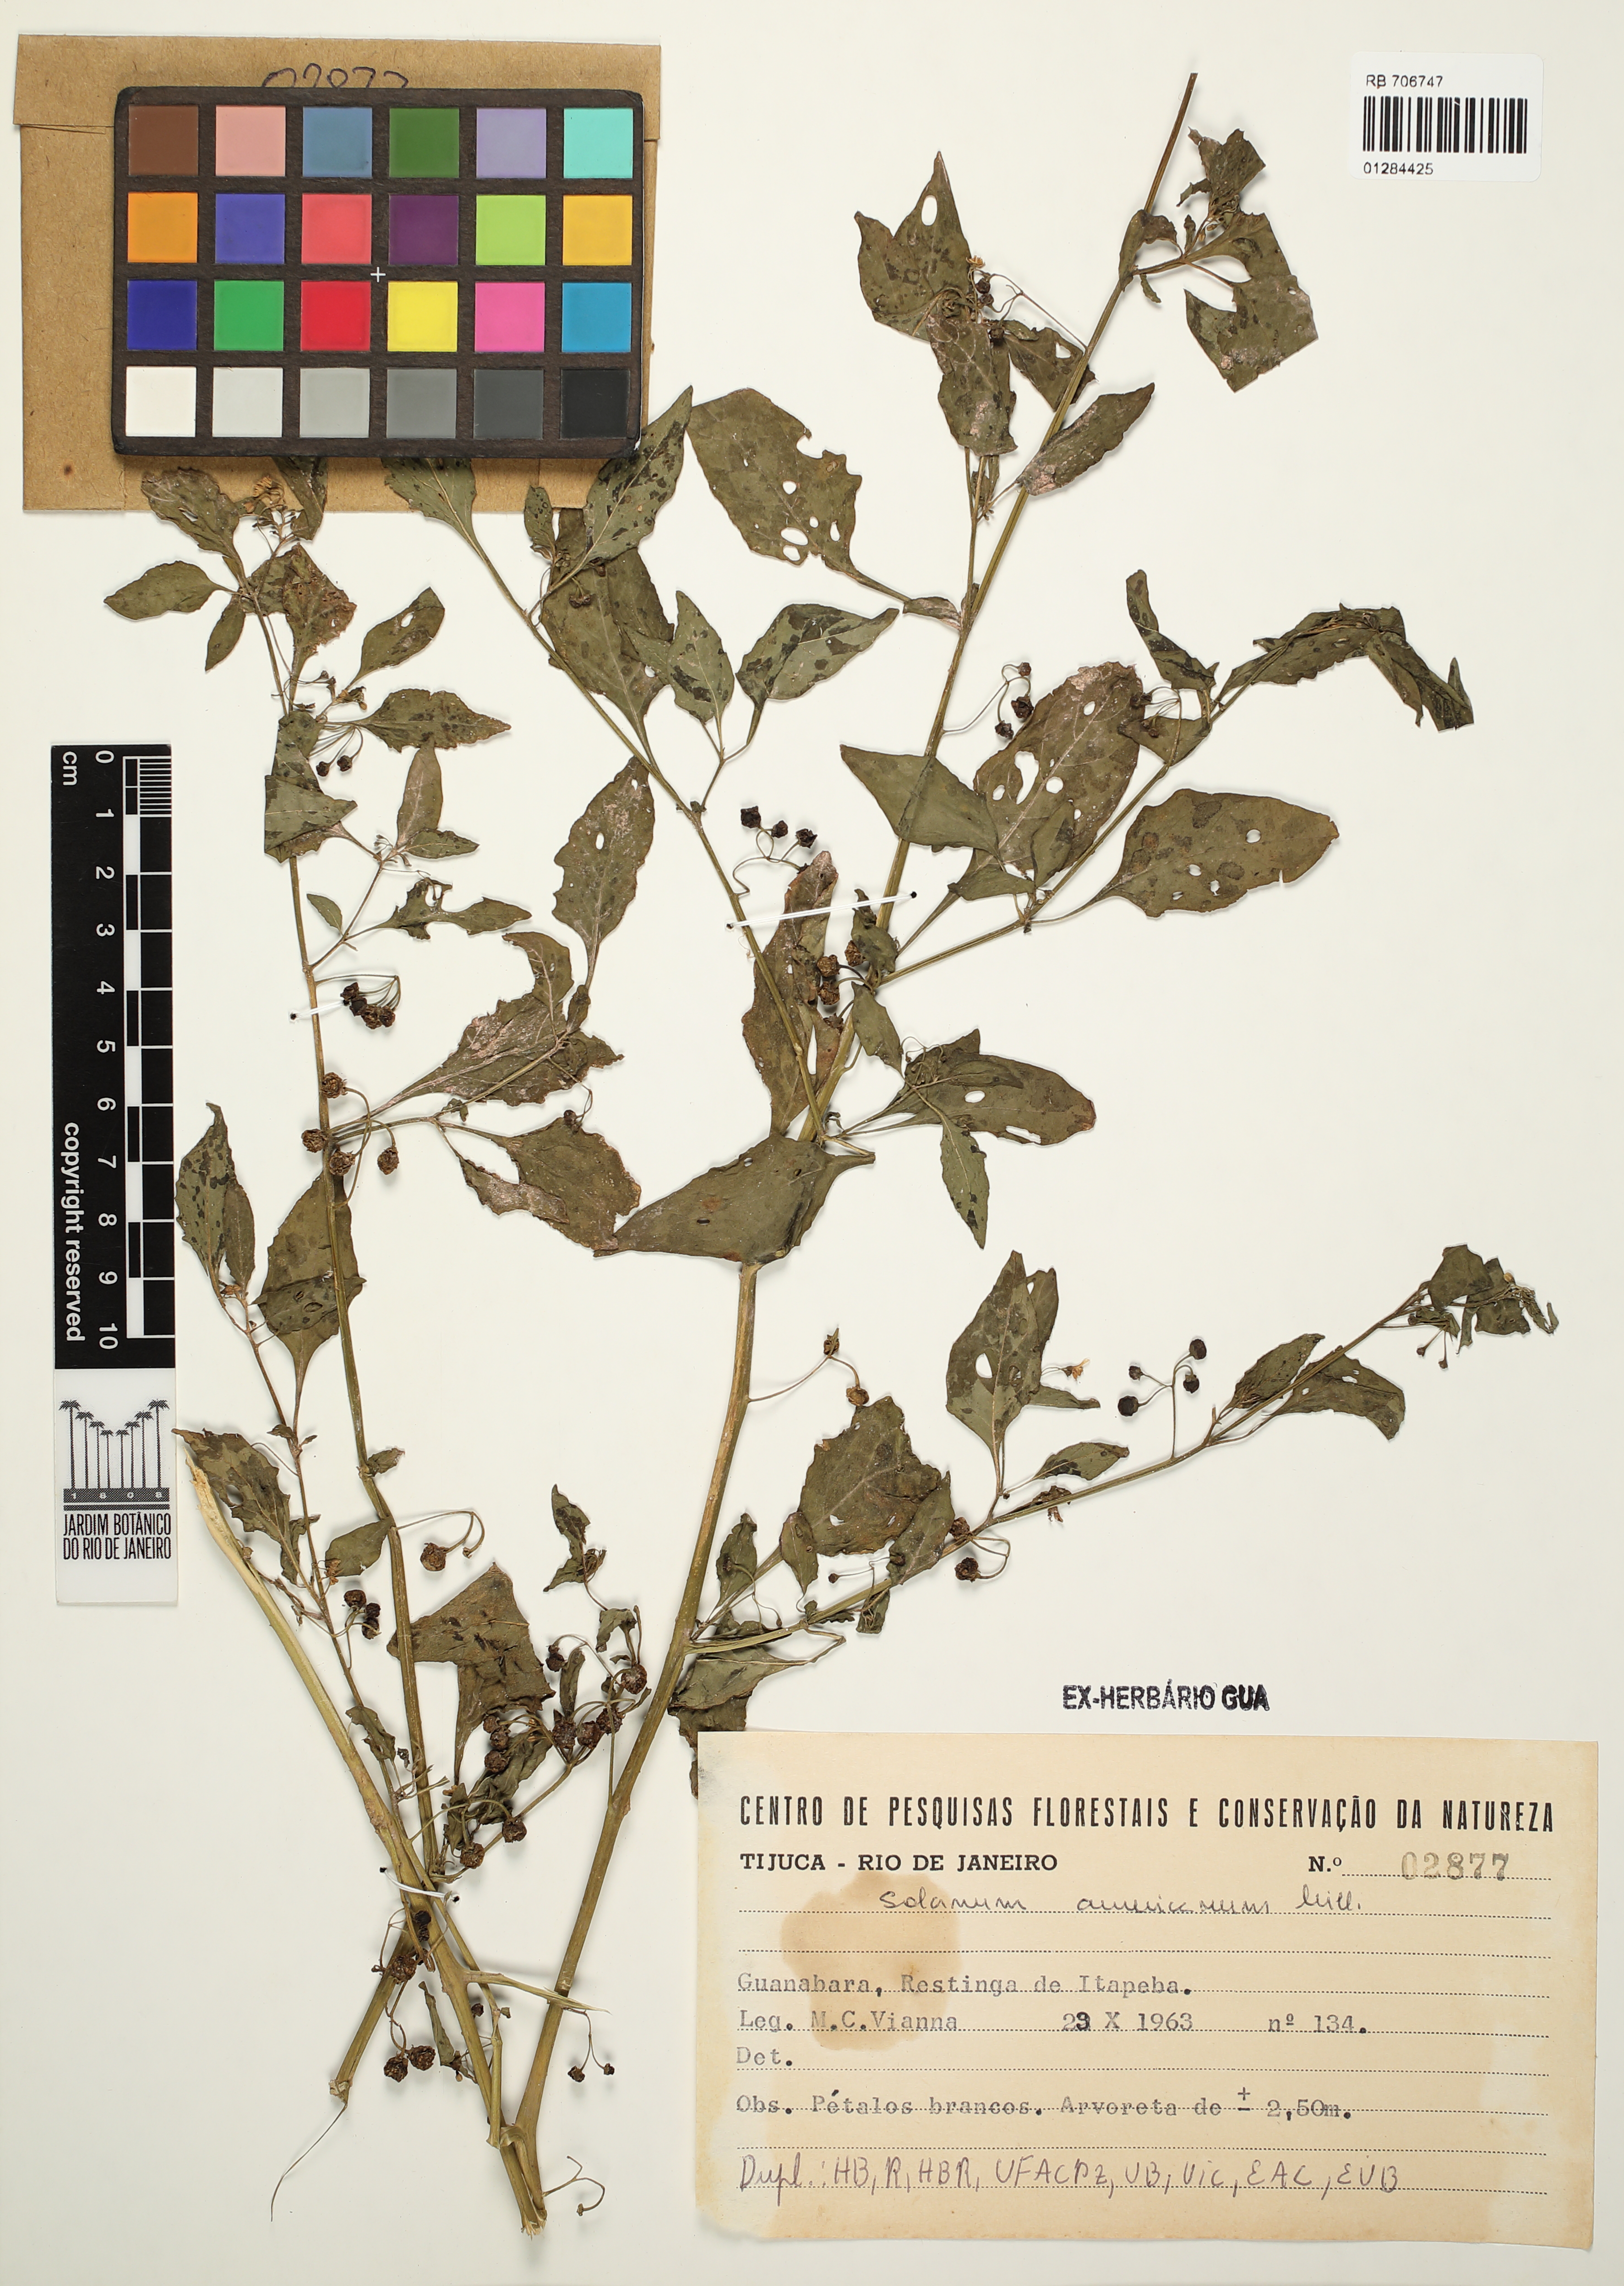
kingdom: Plantae
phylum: Tracheophyta
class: Magnoliopsida
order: Solanales
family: Solanaceae
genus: Solanum
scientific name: Solanum americanum
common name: American black nightshade
